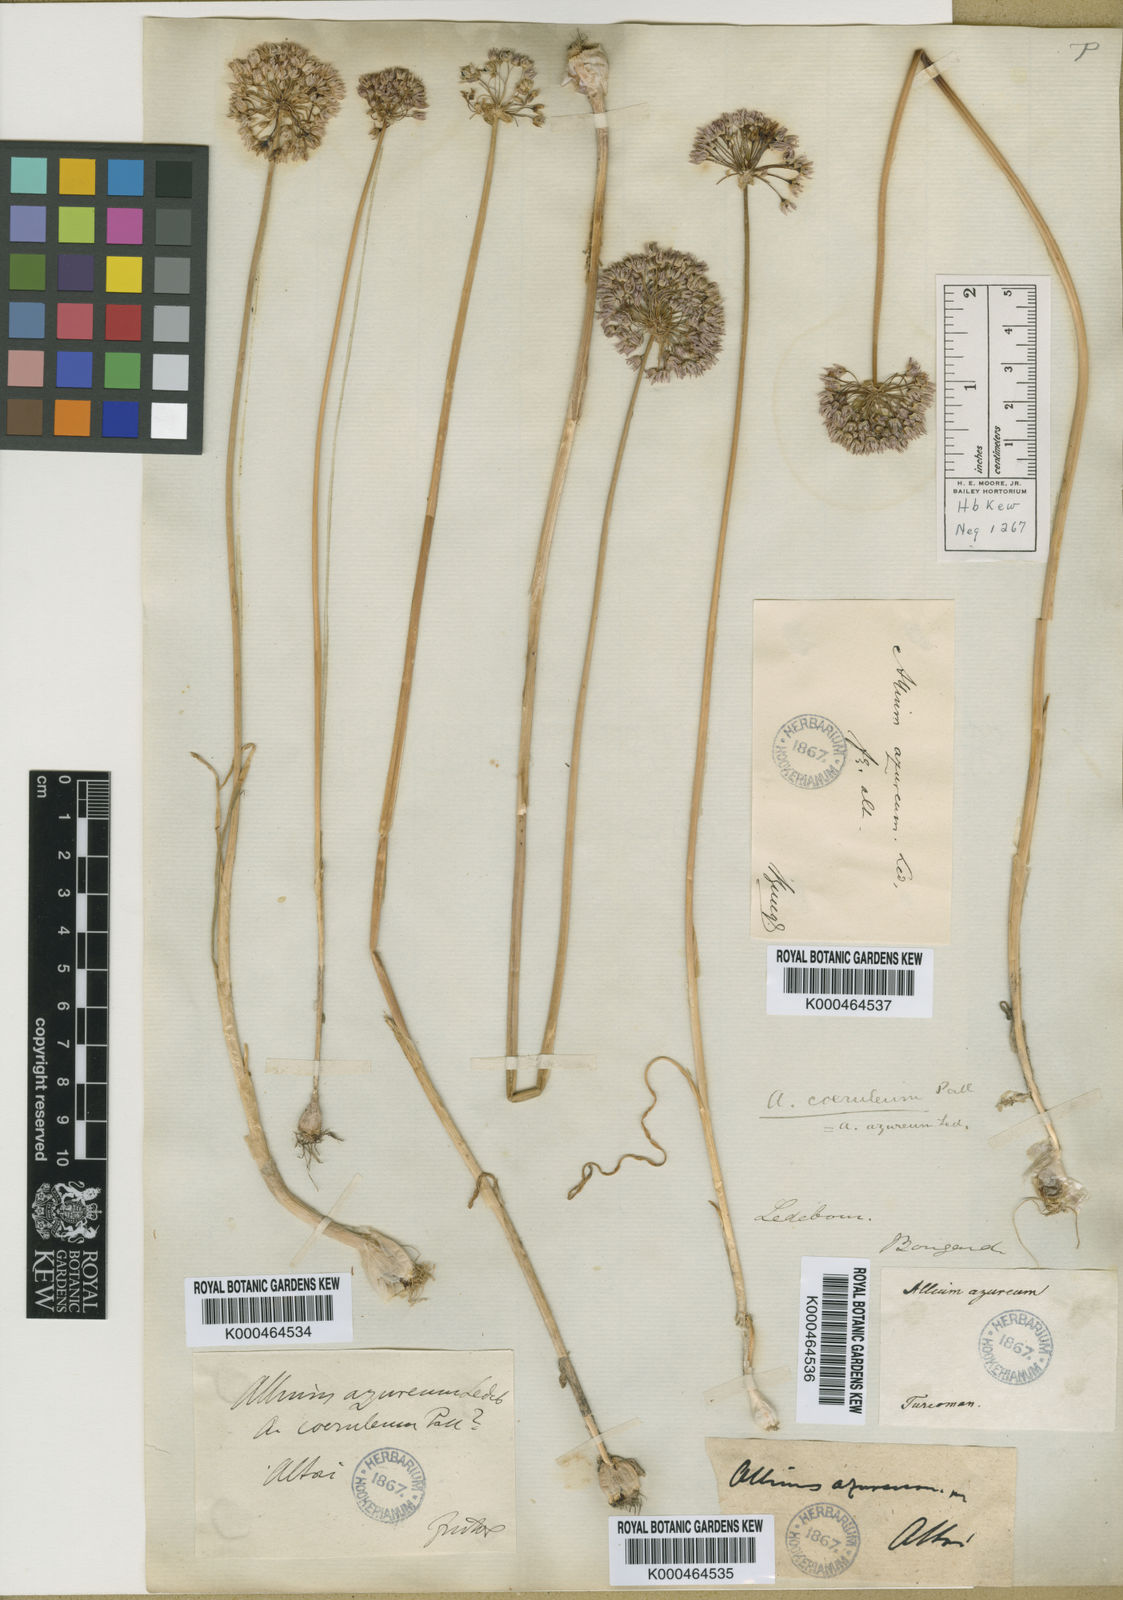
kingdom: Plantae
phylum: Tracheophyta
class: Liliopsida
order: Asparagales
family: Amaryllidaceae
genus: Allium
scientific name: Allium wallichii
